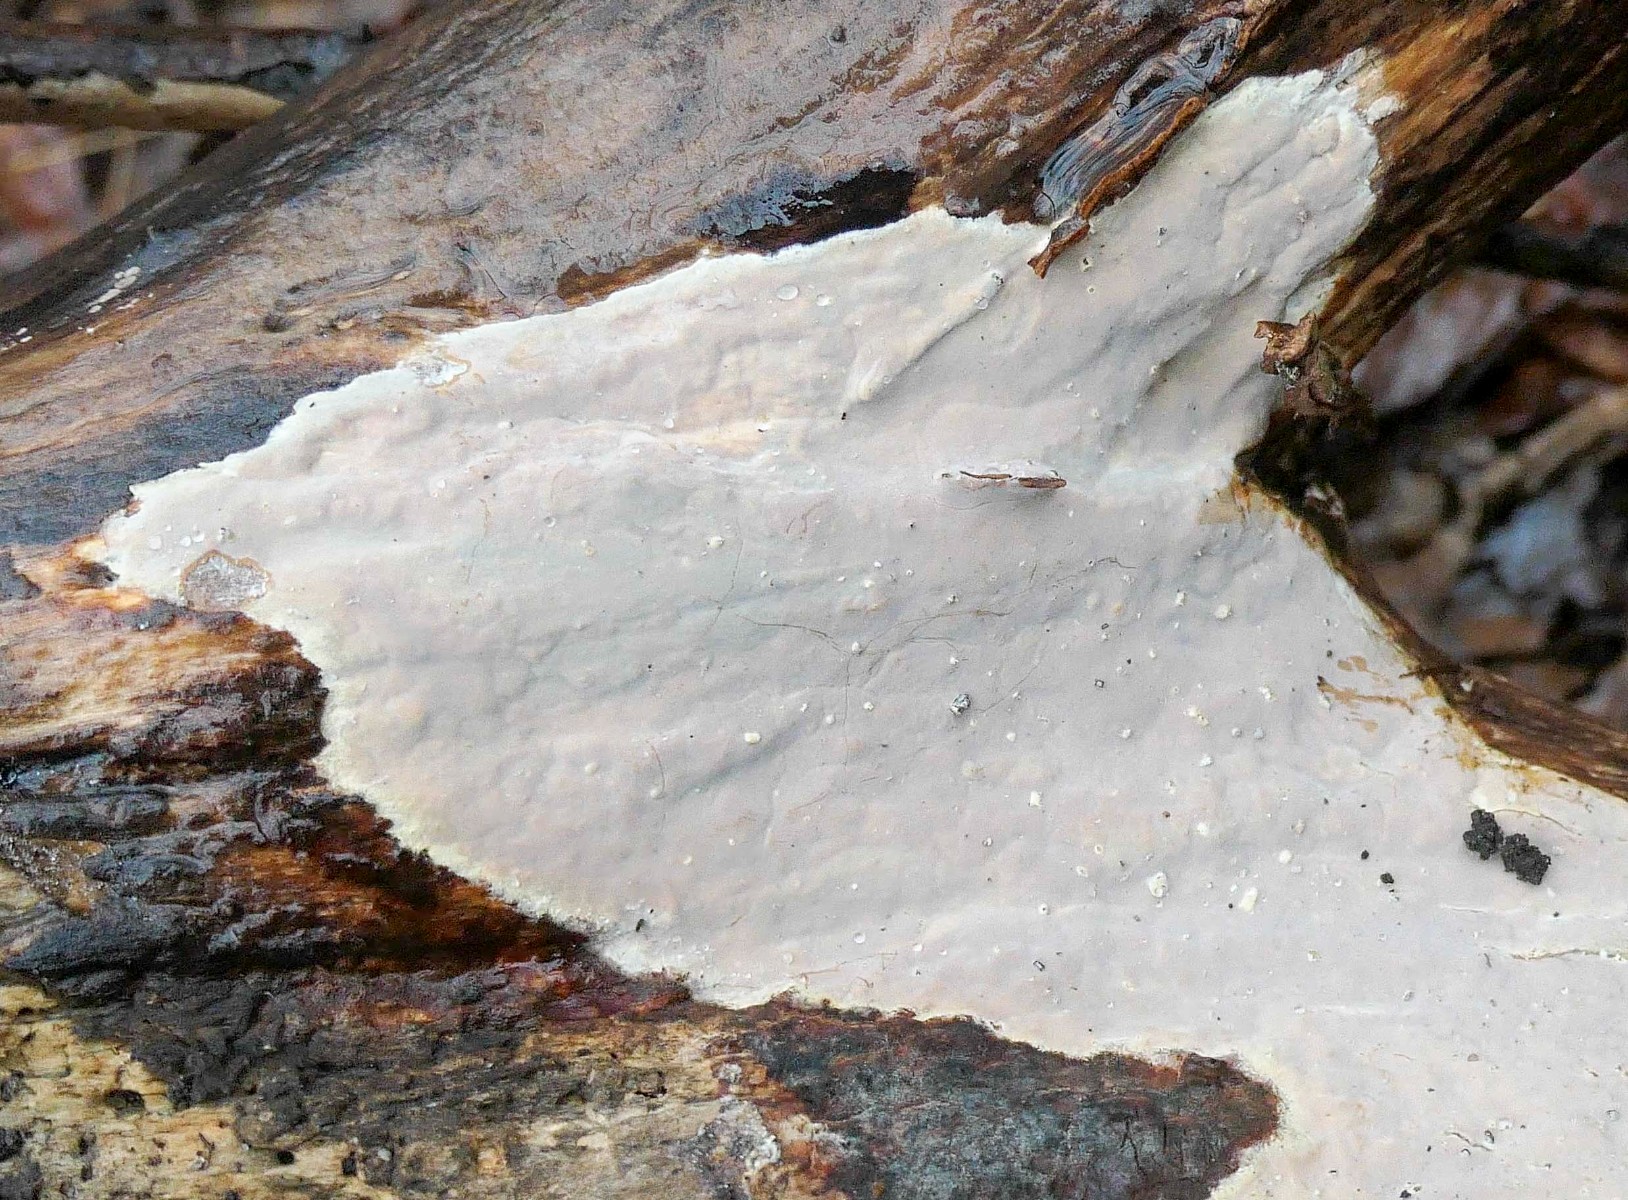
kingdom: Fungi
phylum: Basidiomycota
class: Agaricomycetes
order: Russulales
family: Peniophoraceae
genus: Scytinostroma
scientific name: Scytinostroma hemidichophyticum
